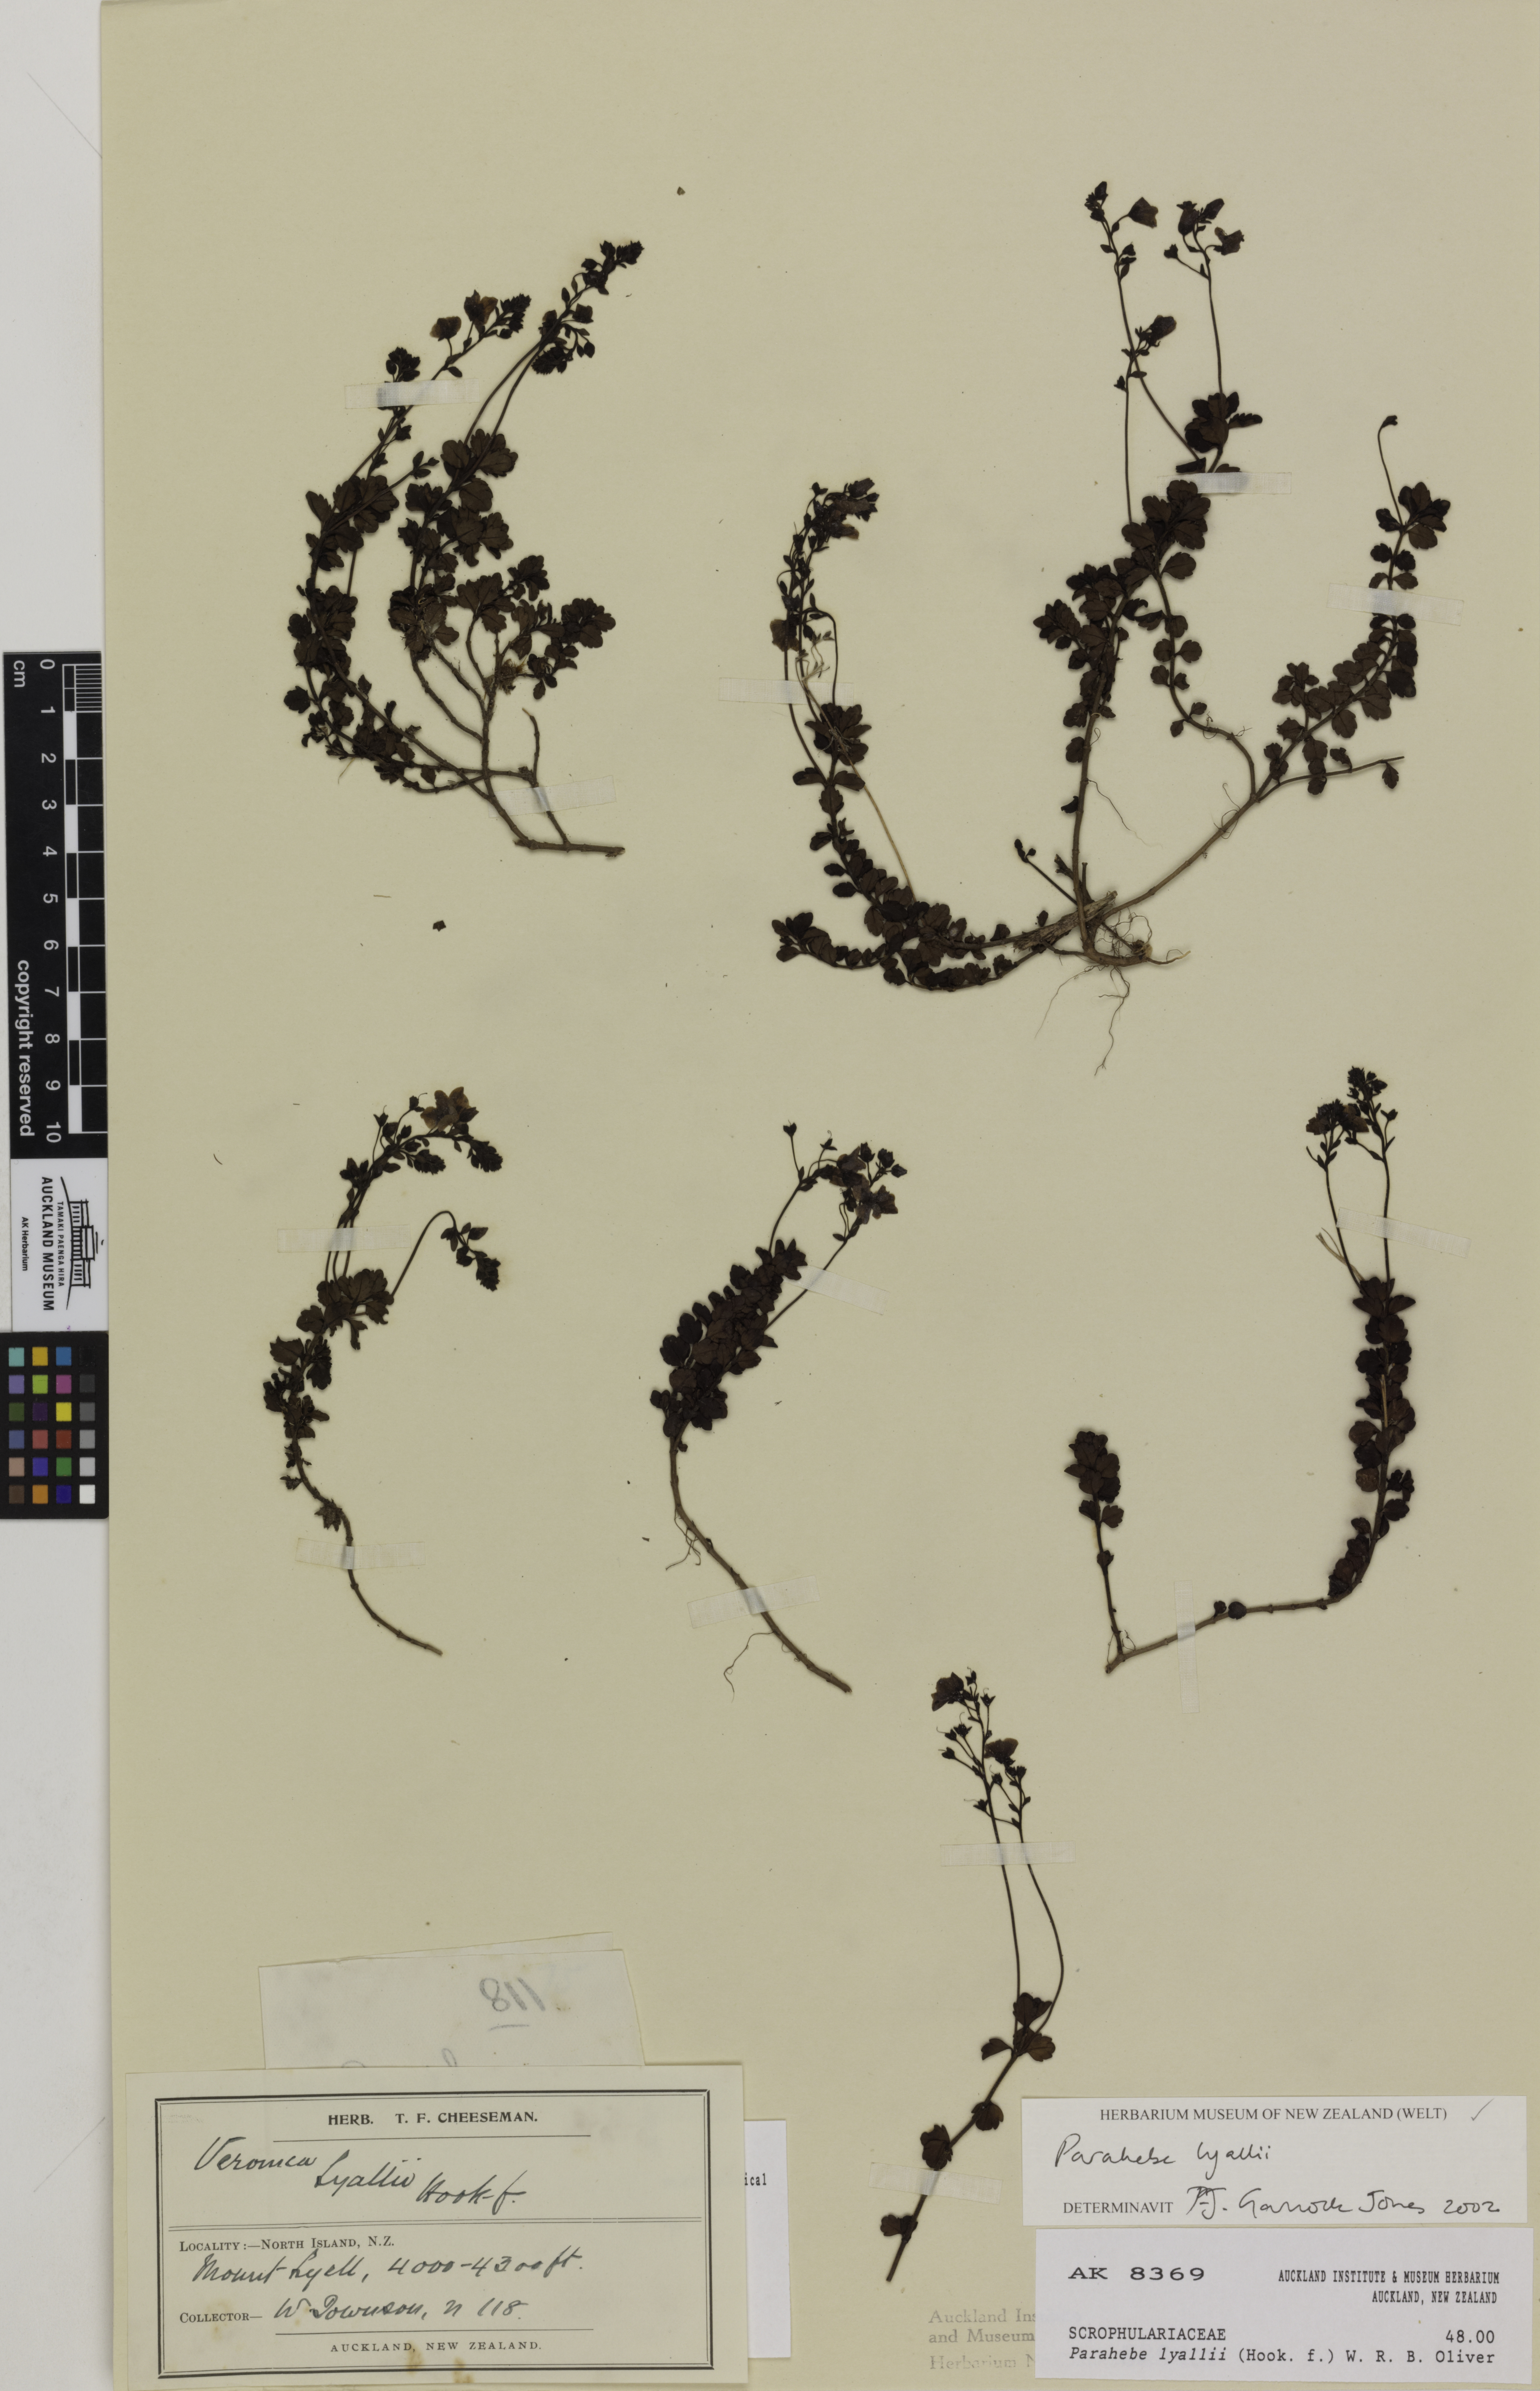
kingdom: Plantae
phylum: Tracheophyta
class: Magnoliopsida
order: Lamiales
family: Plantaginaceae
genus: Veronica
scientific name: Veronica lyallii
